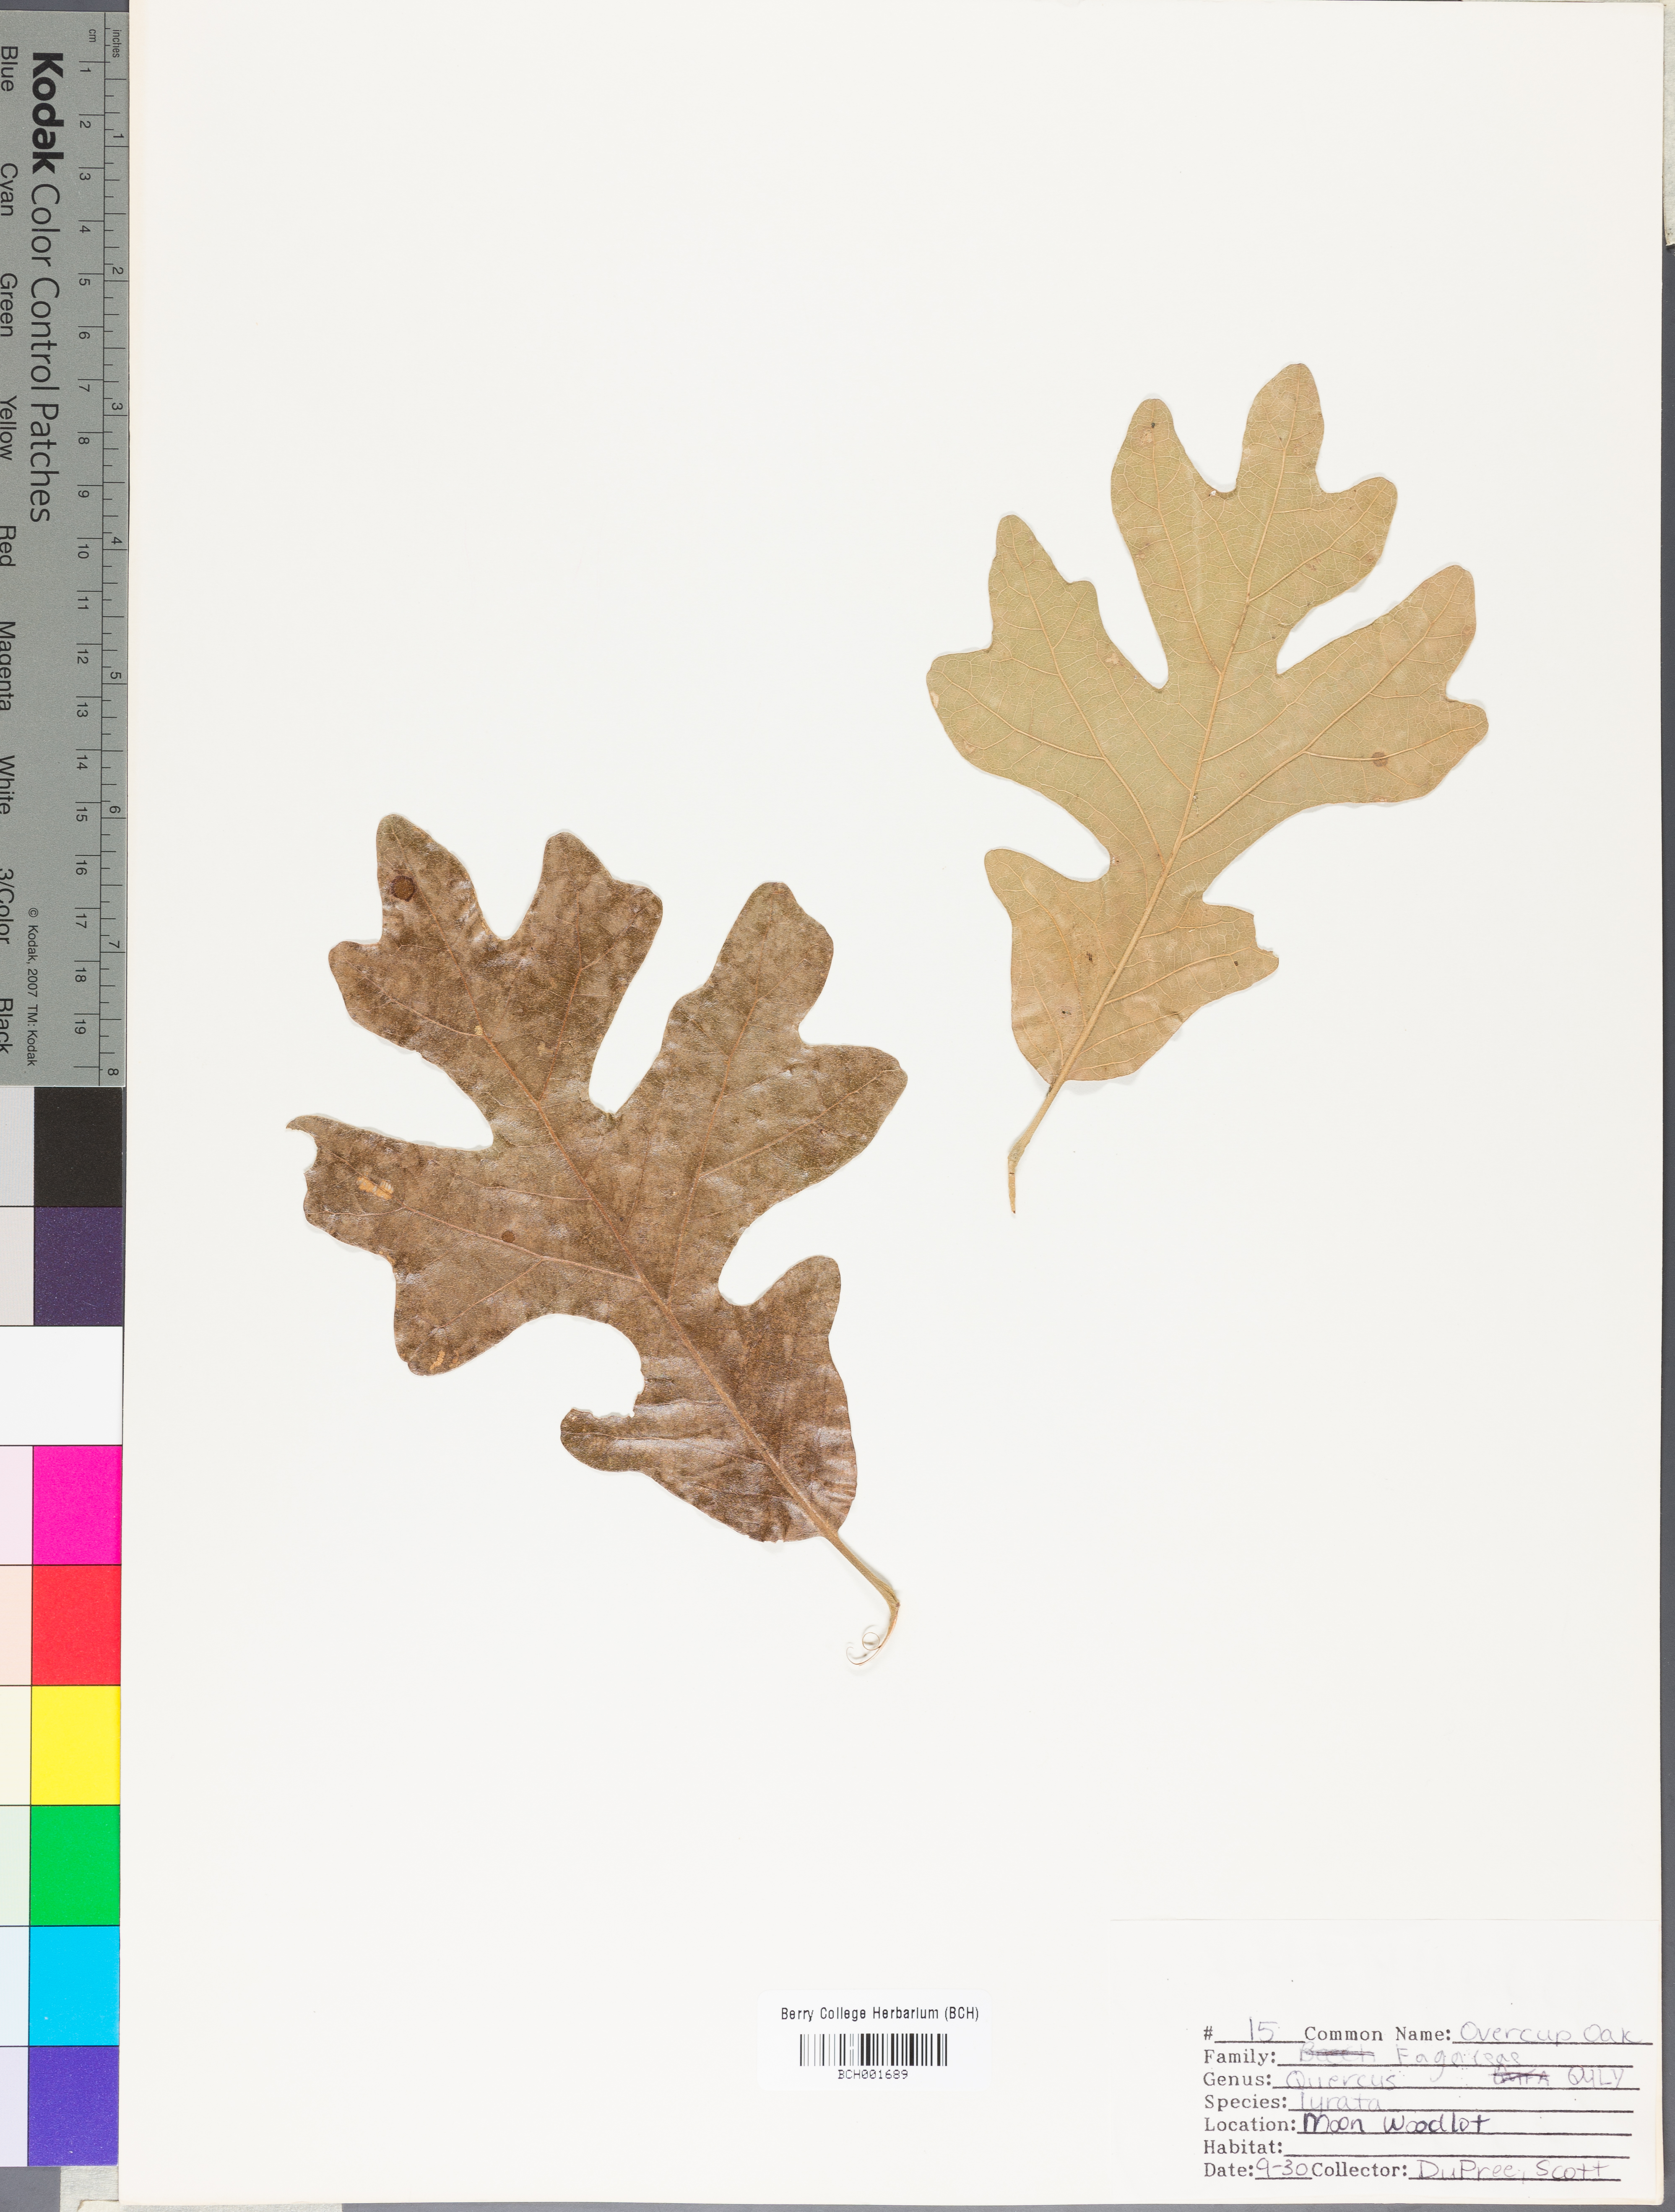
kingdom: Plantae
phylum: Tracheophyta
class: Magnoliopsida
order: Fagales
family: Fagaceae
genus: Quercus
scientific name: Quercus lyrata
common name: Overcup oak
